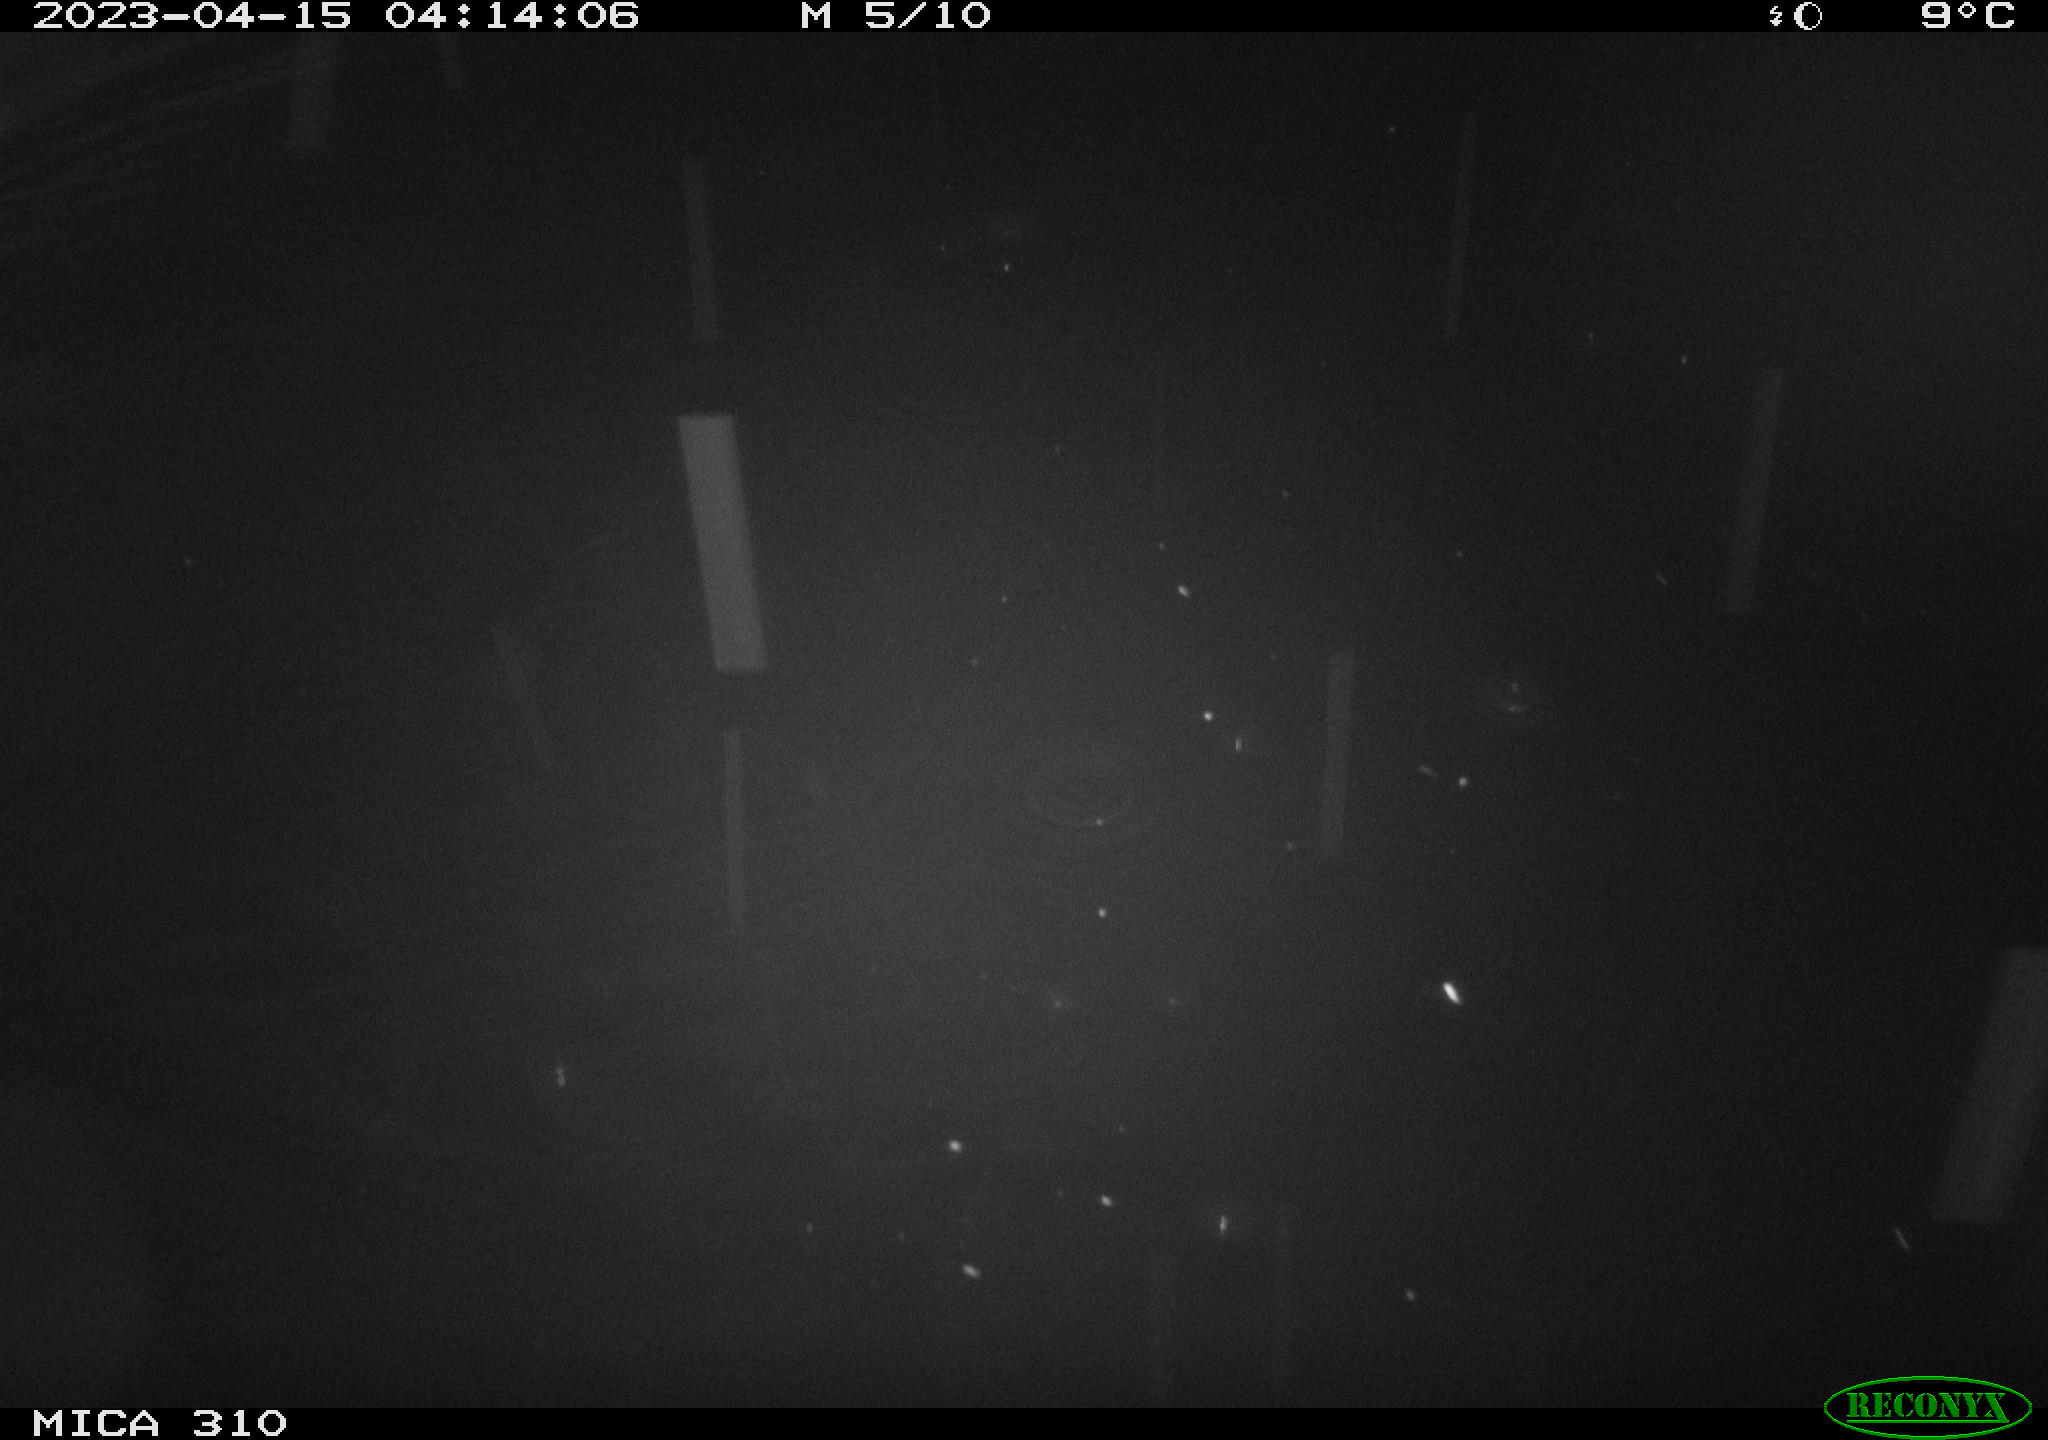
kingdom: Animalia
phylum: Chordata
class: Mammalia
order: Rodentia
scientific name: Rodentia
